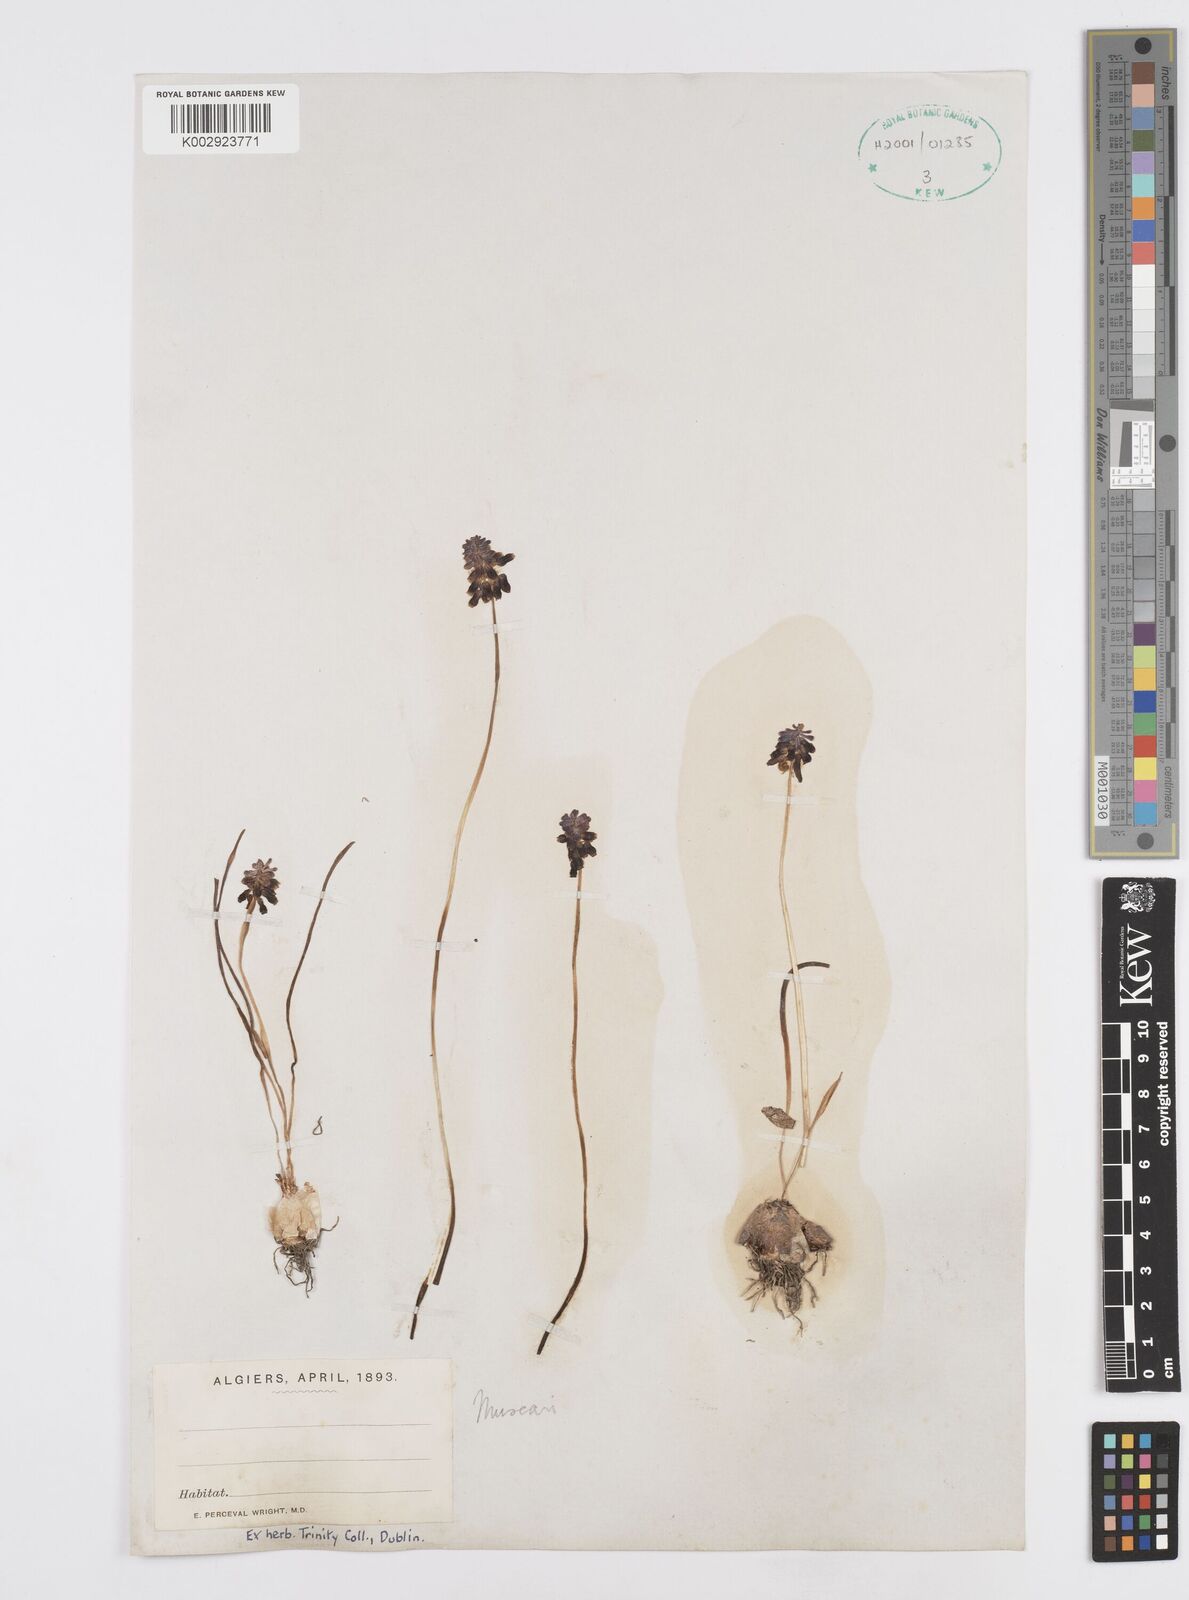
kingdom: Plantae
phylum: Tracheophyta
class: Liliopsida
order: Asparagales
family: Asparagaceae
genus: Muscari
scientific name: Muscari
